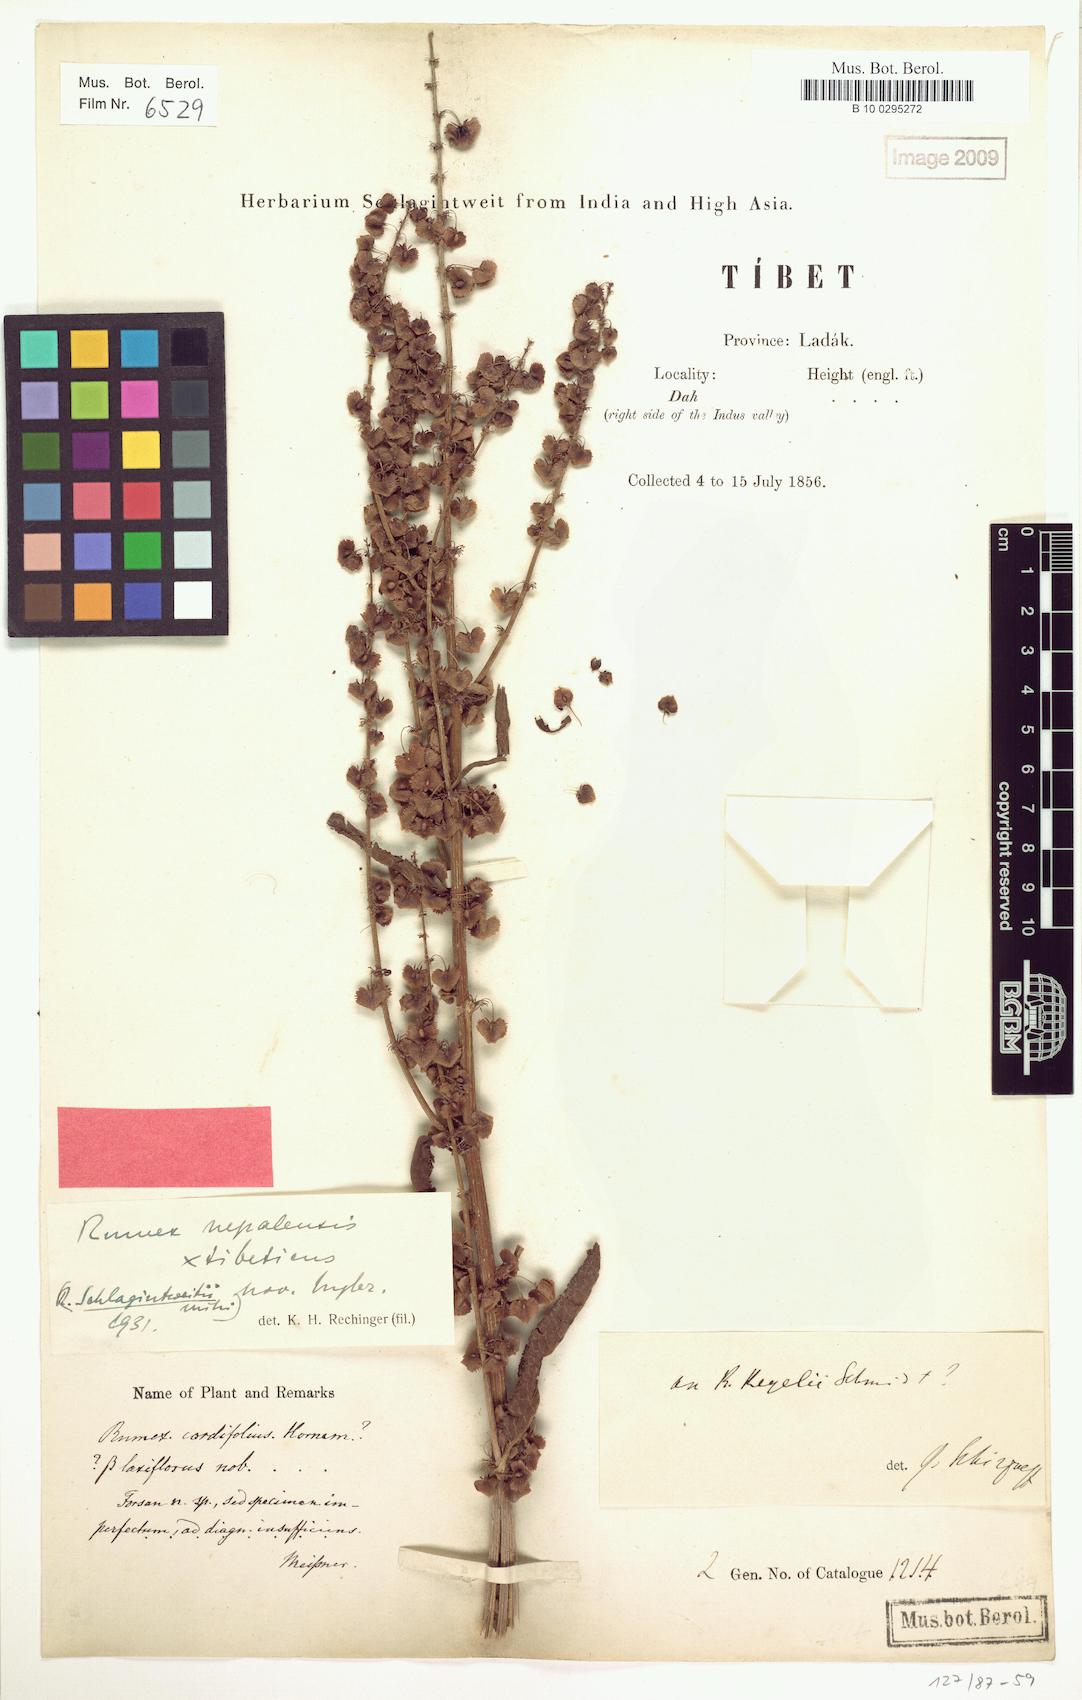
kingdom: Plantae
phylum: Tracheophyta
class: Magnoliopsida
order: Caryophyllales
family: Polygonaceae
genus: Rumex
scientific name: Rumex schlagintweitii
